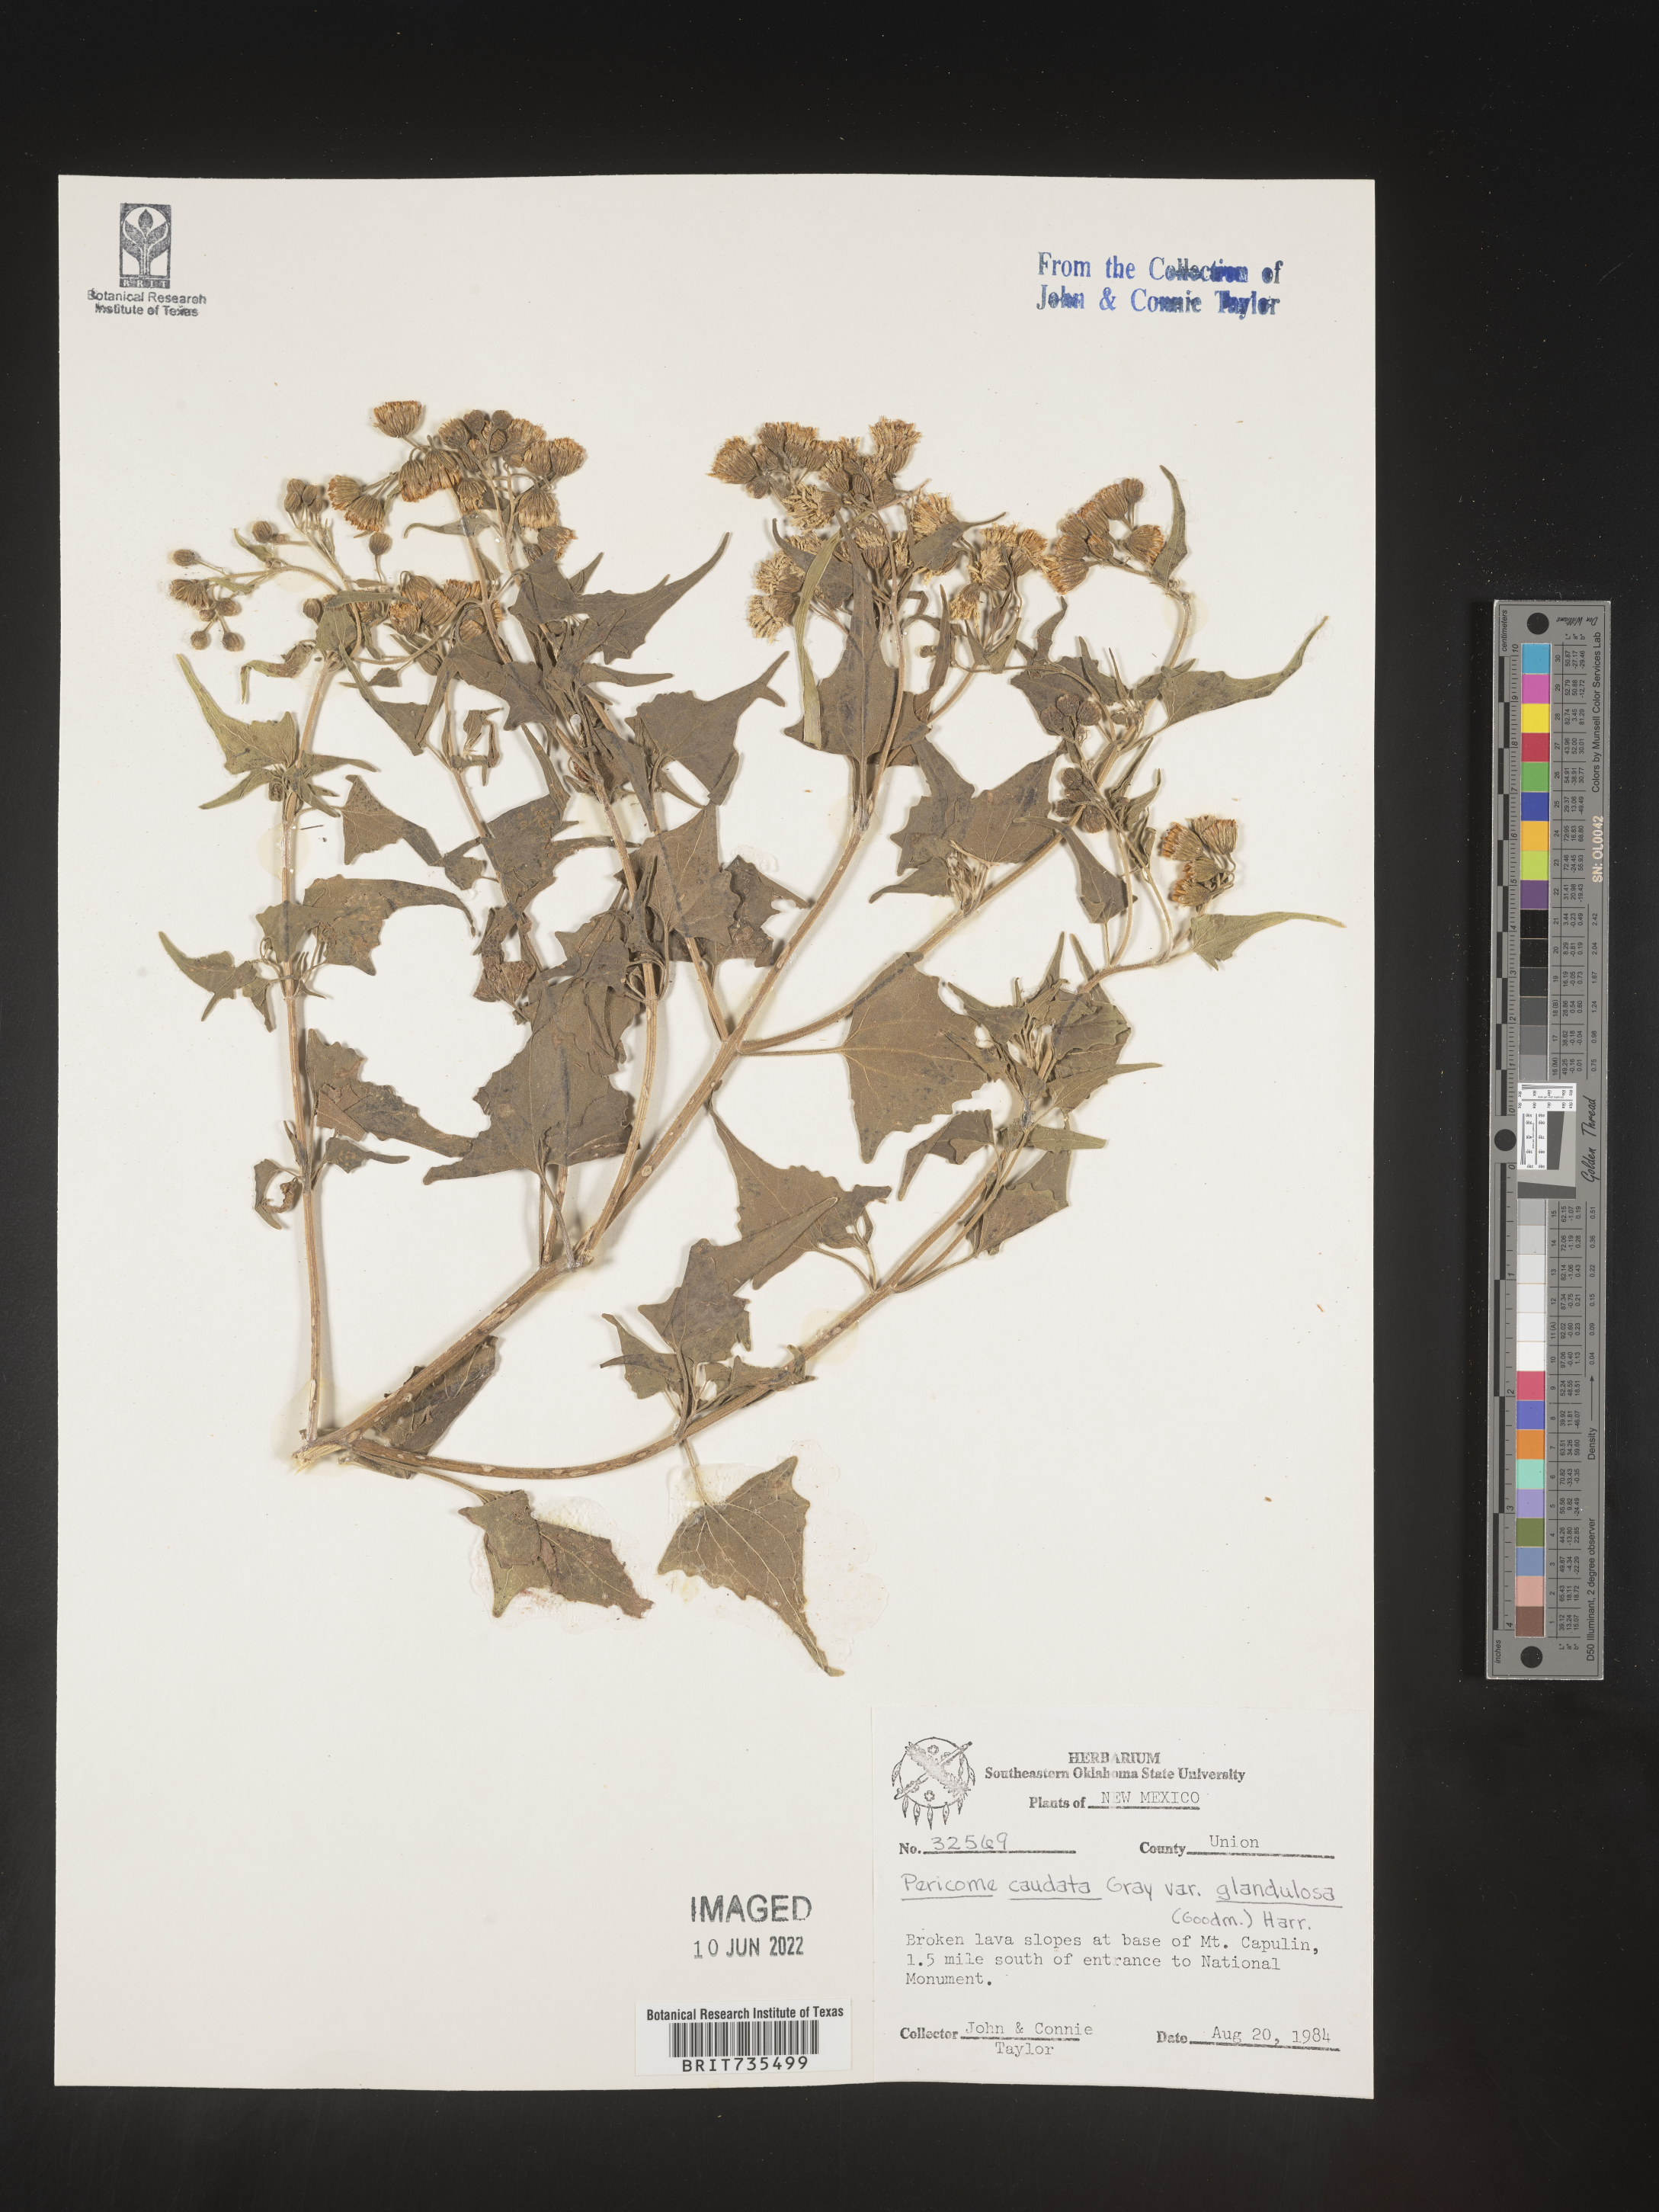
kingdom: Plantae
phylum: Tracheophyta
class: Magnoliopsida
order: Asterales
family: Asteraceae
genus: Pericome
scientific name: Pericome
